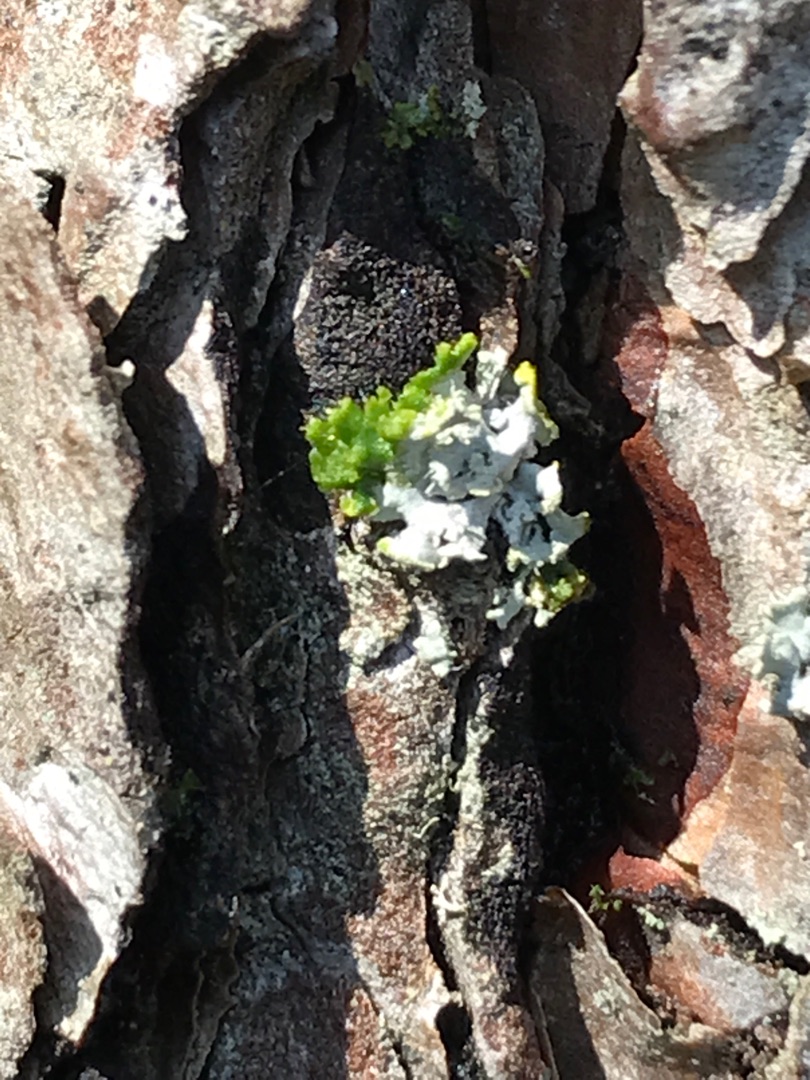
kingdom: Fungi
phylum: Ascomycota
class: Lecanoromycetes
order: Caliciales
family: Physciaceae
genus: Physcia
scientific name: Physcia tenella
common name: Spæd rosetlav
